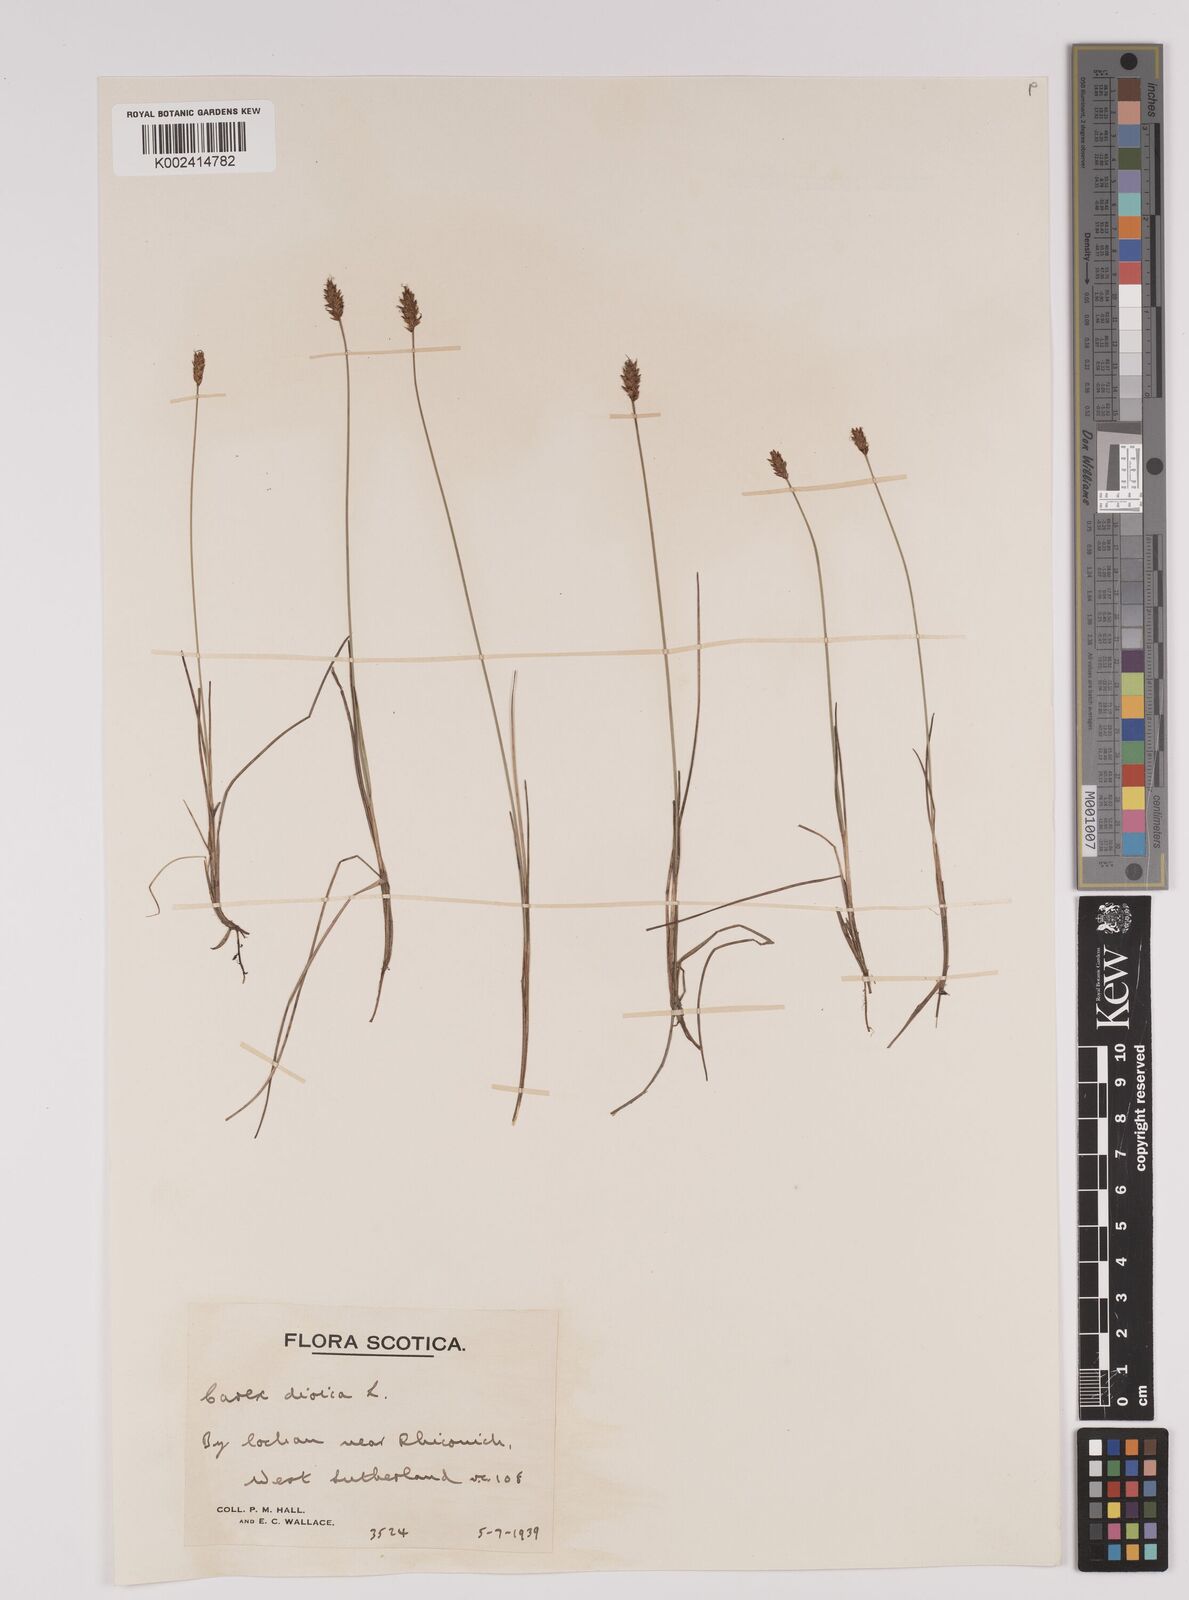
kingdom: Plantae
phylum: Tracheophyta
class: Liliopsida
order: Poales
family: Cyperaceae
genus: Carex
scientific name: Carex dioica
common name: Dioecious sedge
